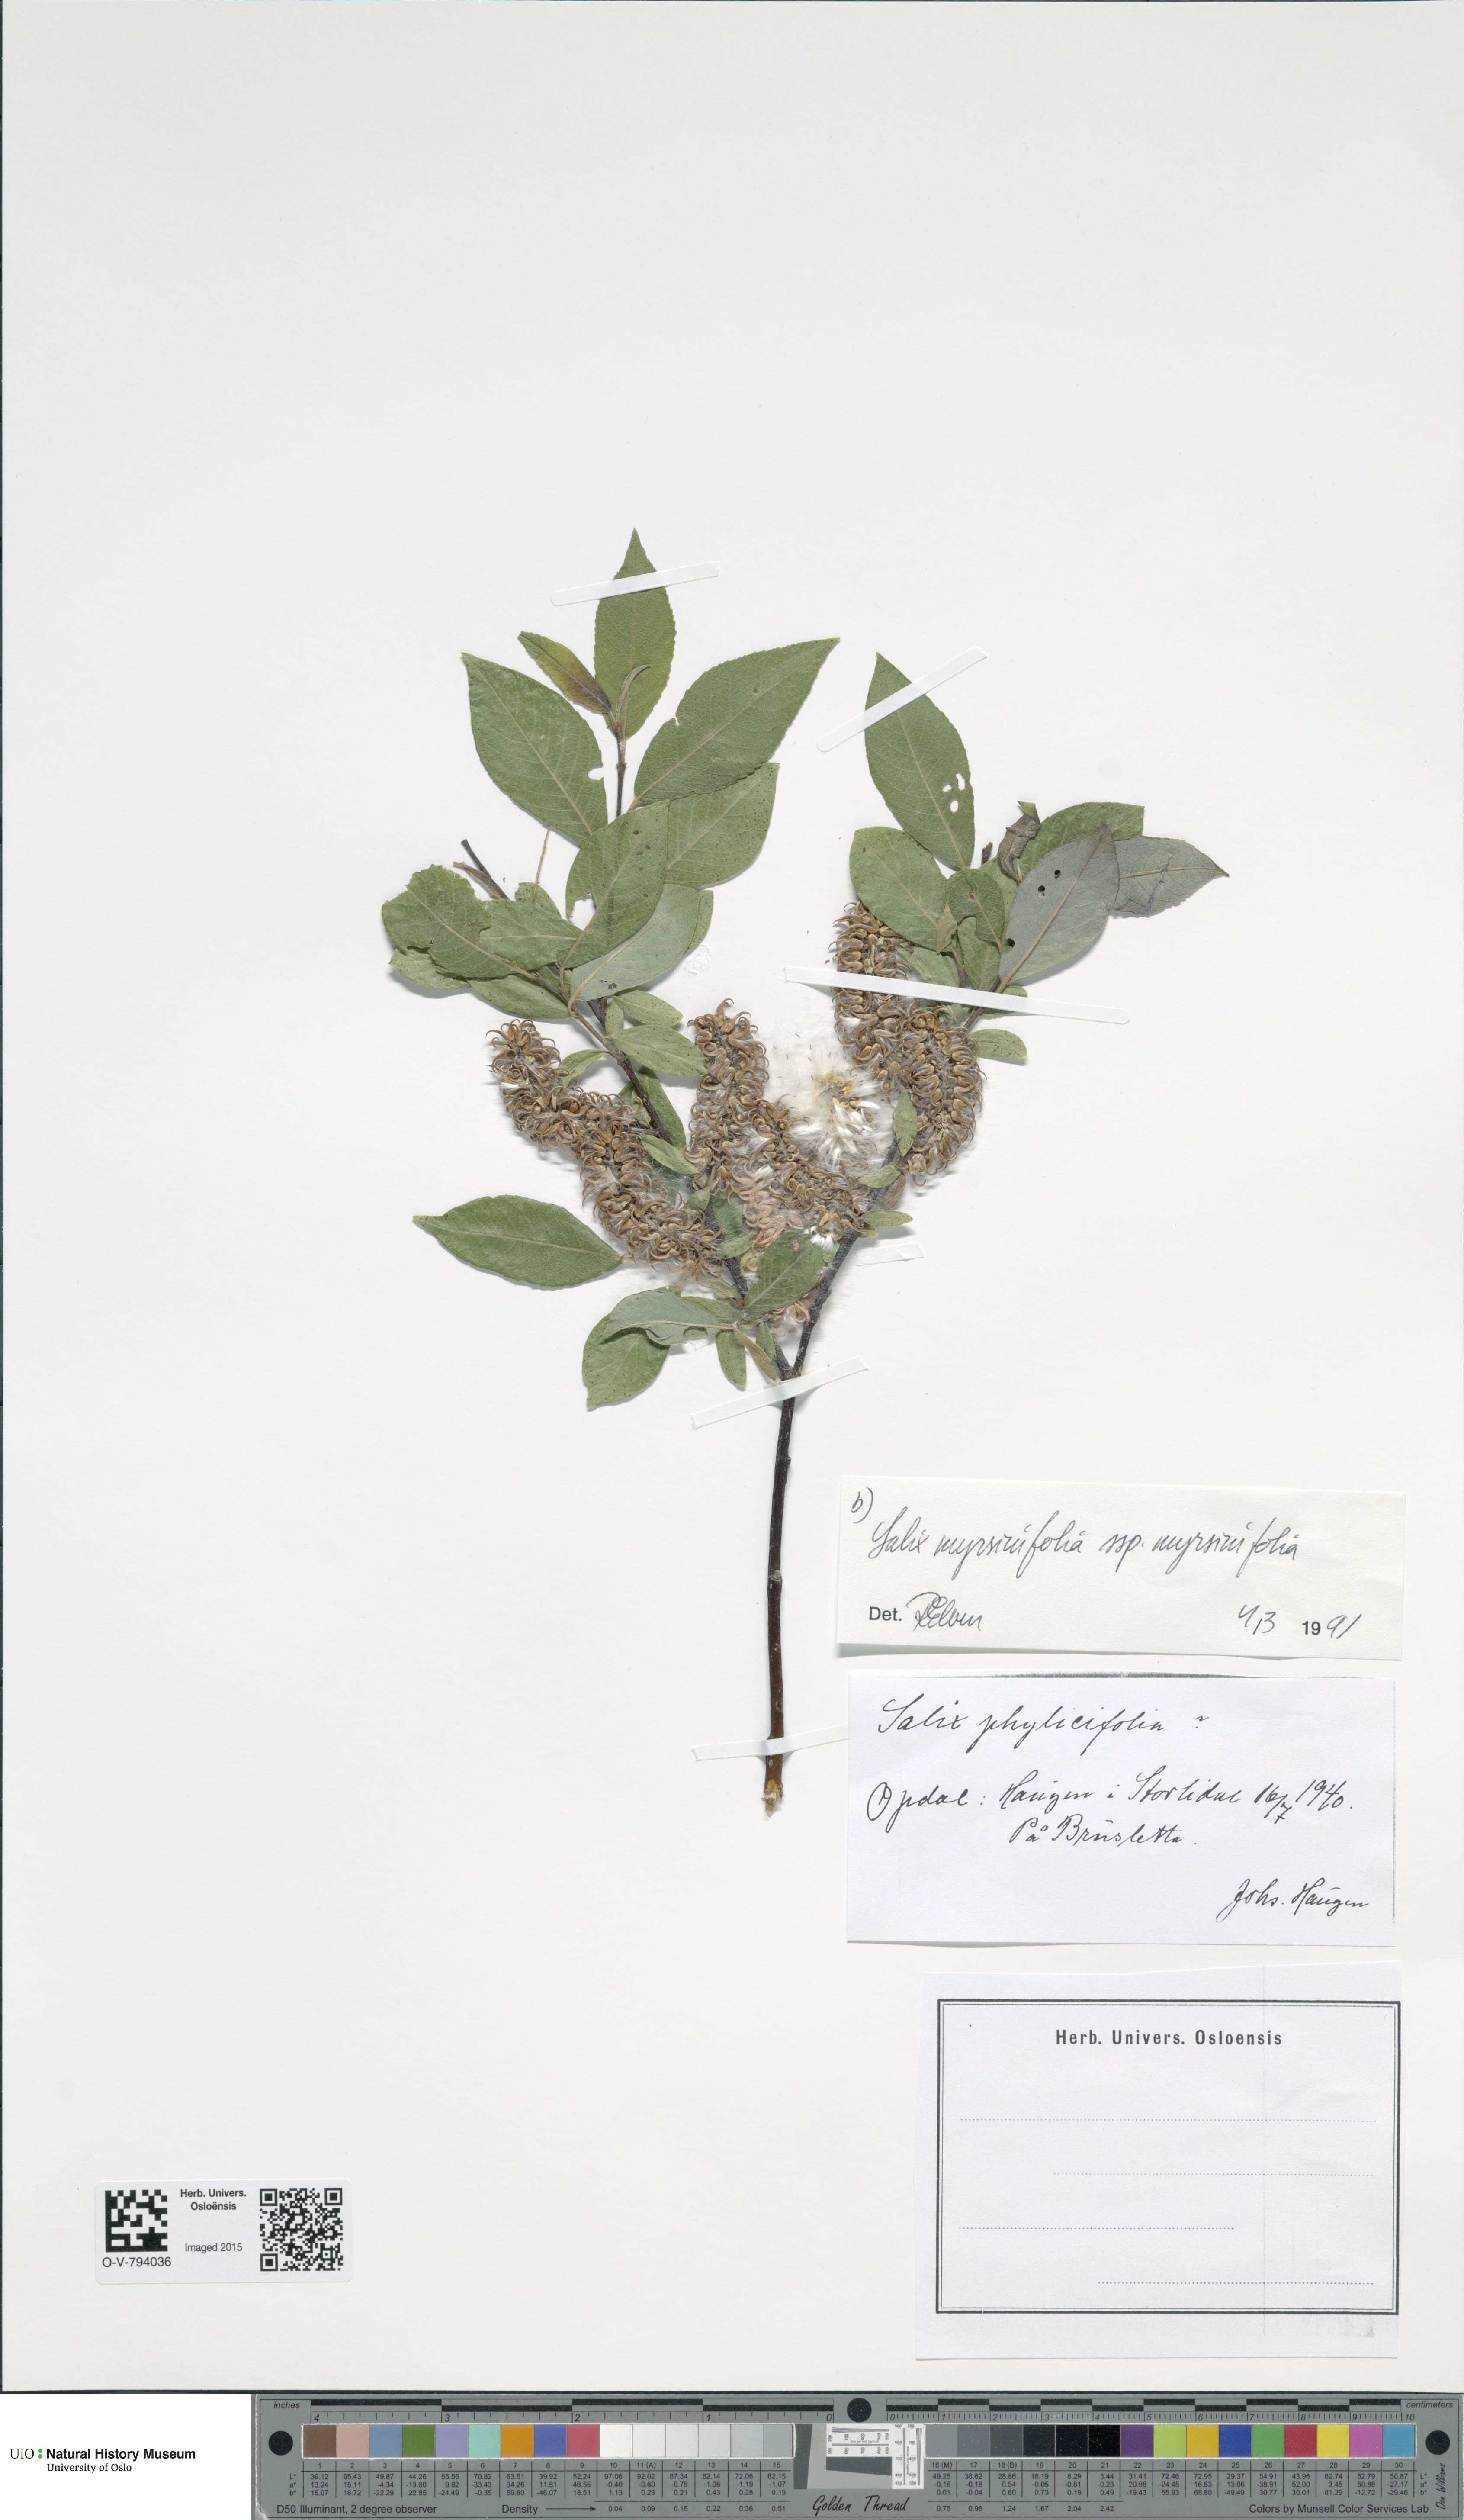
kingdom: Plantae
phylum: Tracheophyta
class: Magnoliopsida
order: Malpighiales
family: Salicaceae
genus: Salix
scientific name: Salix myrsinifolia
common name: Dark-leaved willow
